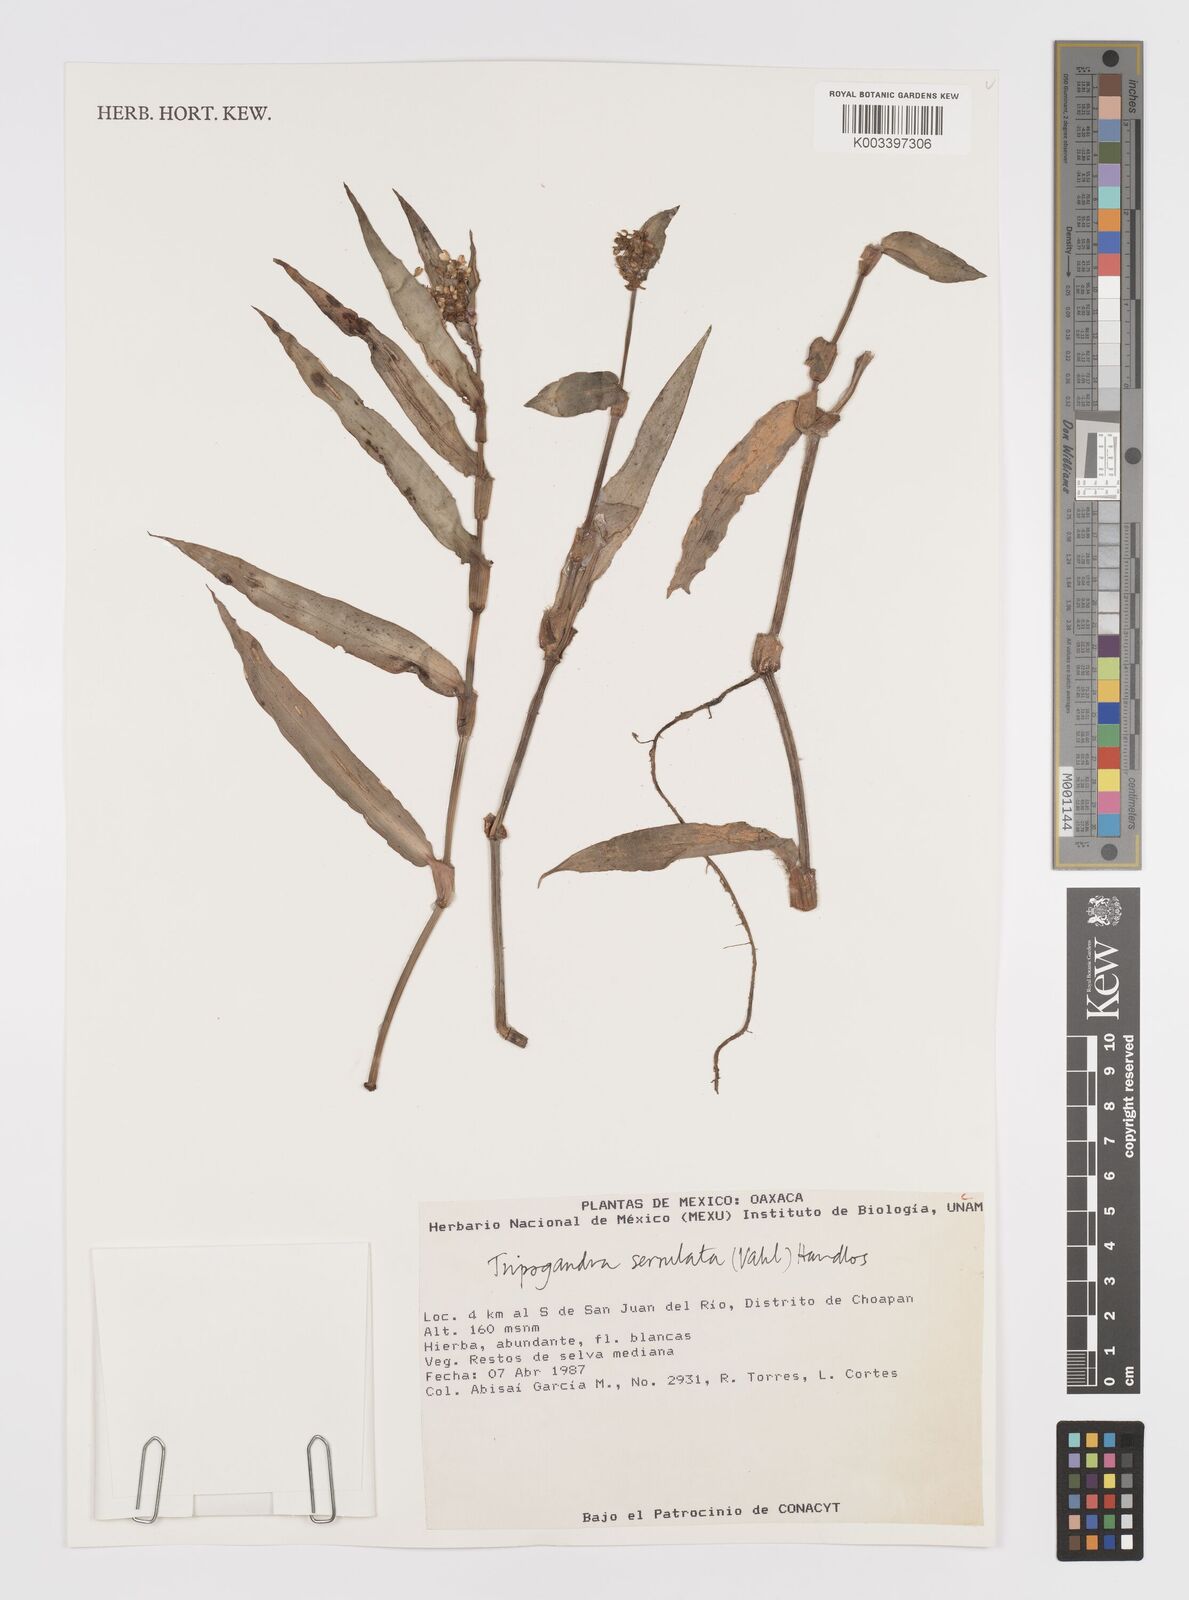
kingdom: Plantae
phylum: Tracheophyta
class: Liliopsida
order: Commelinales
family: Commelinaceae
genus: Callisia
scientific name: Callisia serrulata
